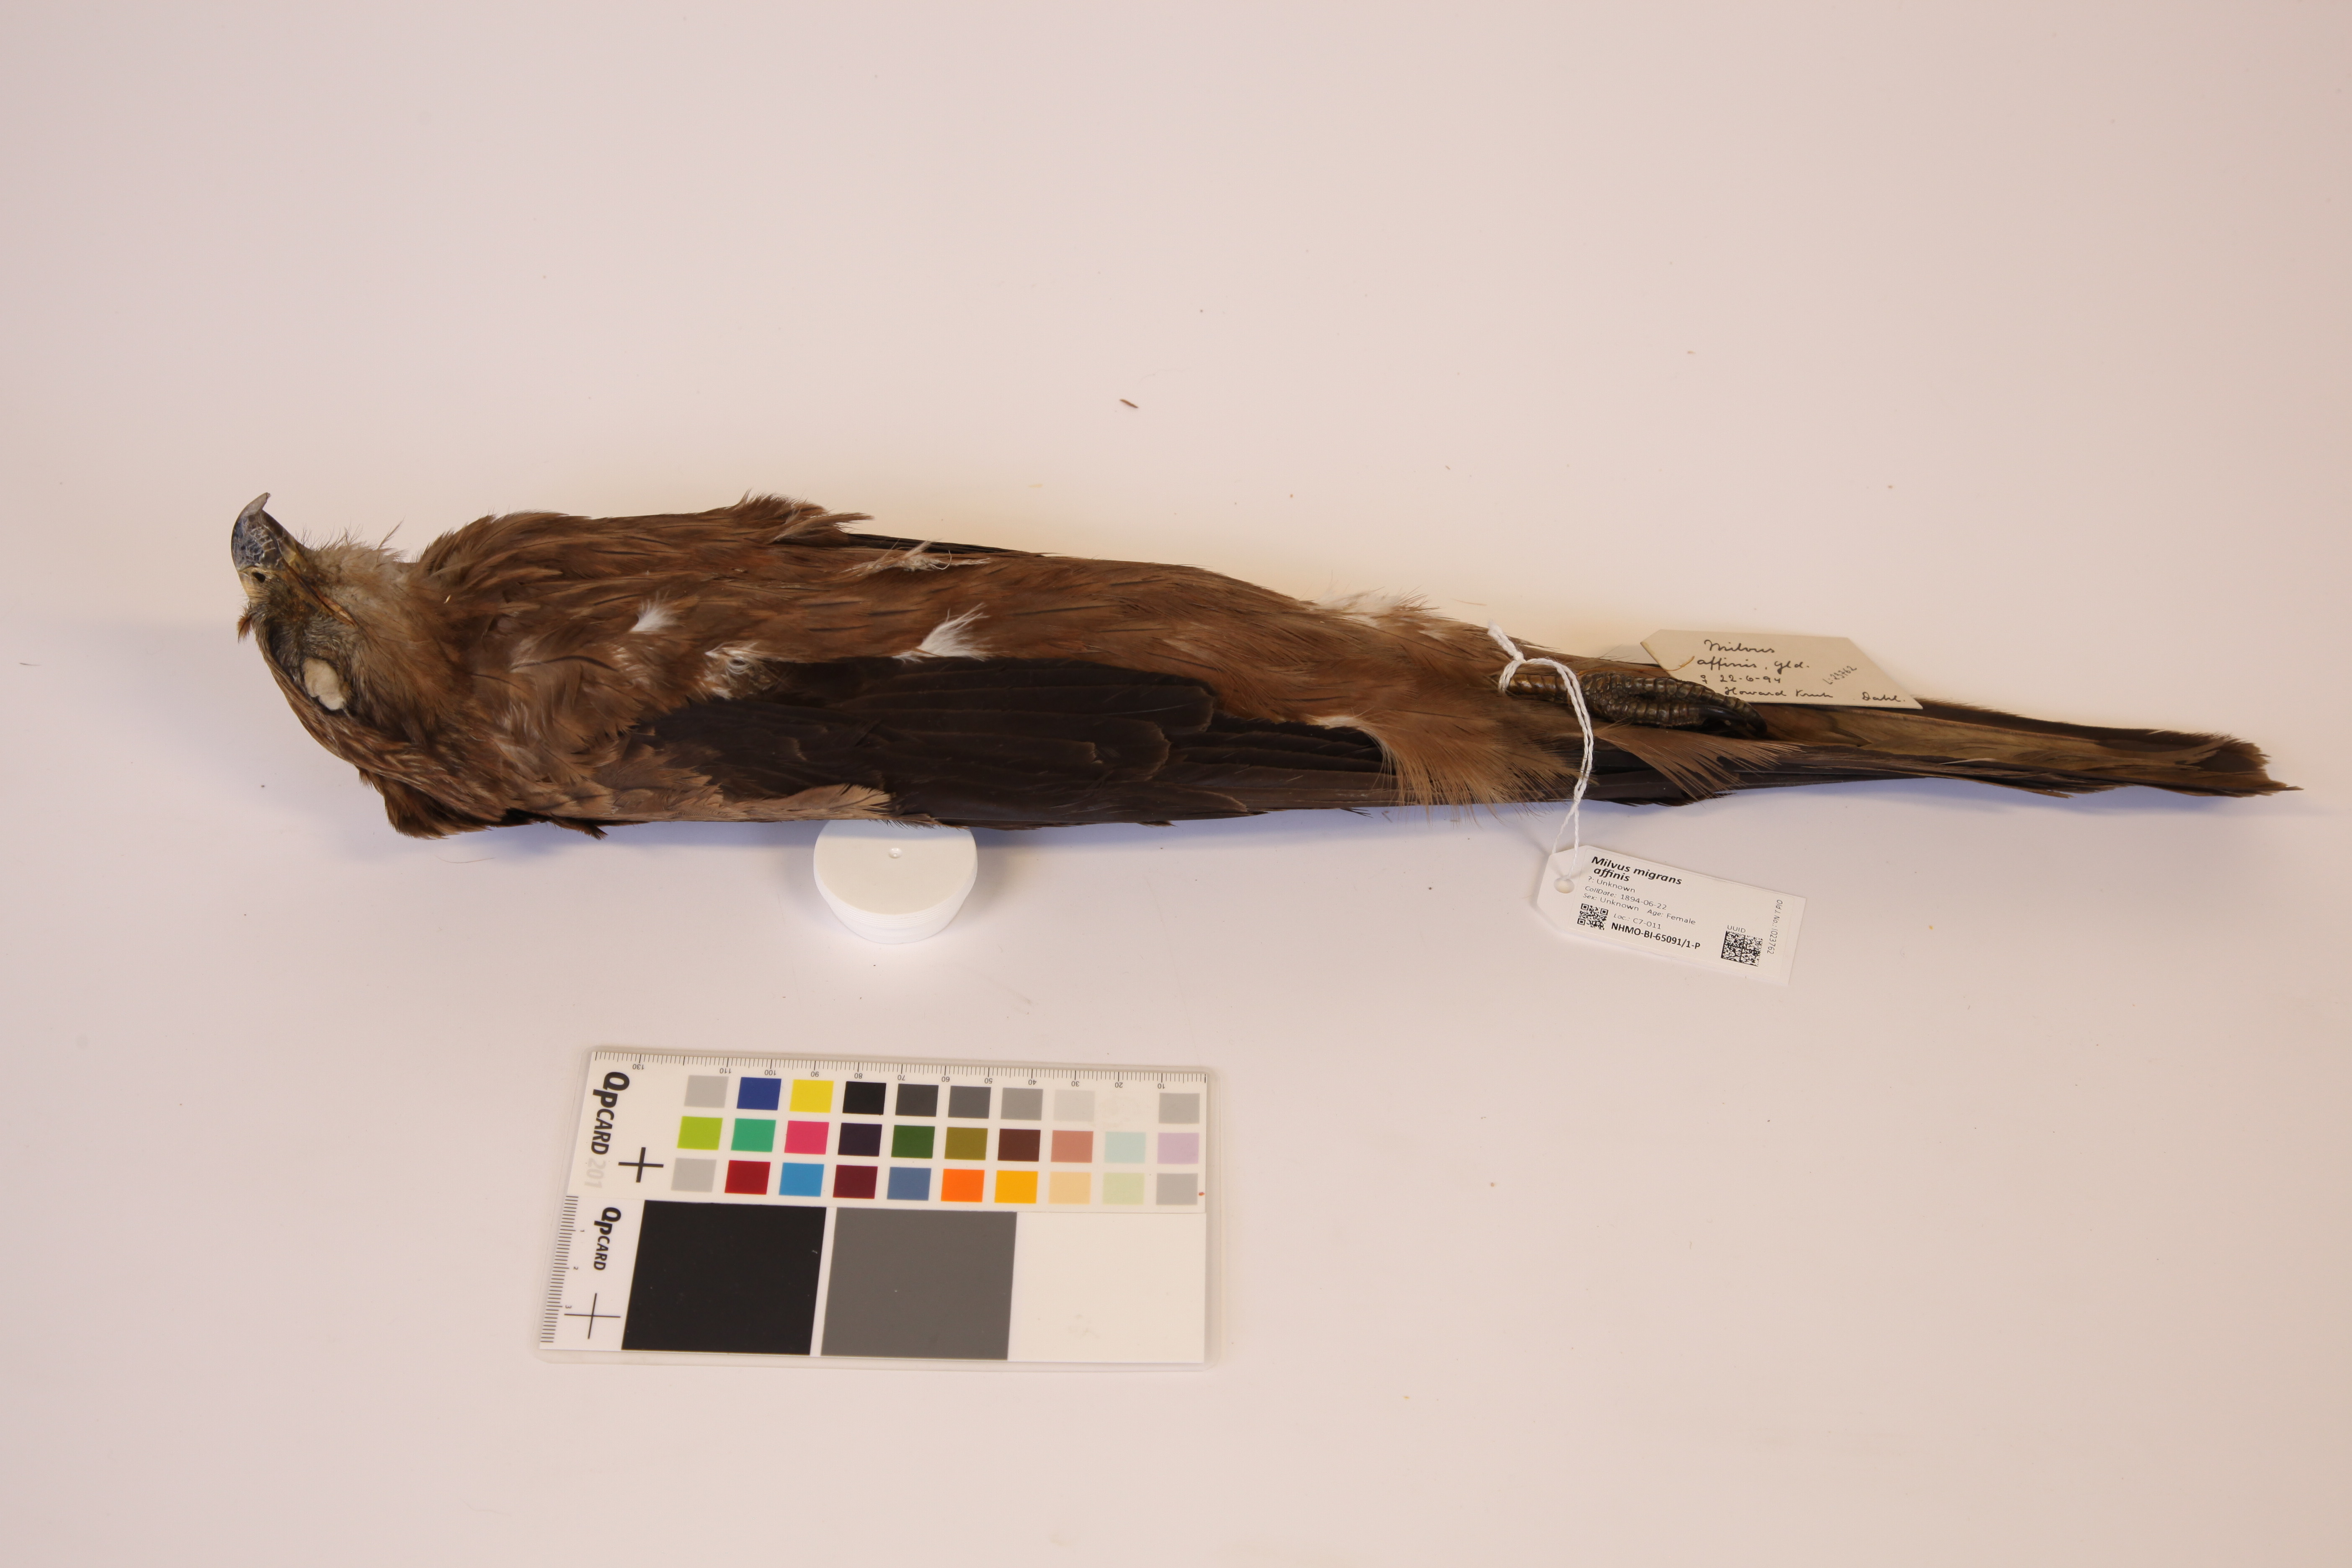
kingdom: Animalia
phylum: Chordata
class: Aves
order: Accipitriformes
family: Accipitridae
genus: Milvus
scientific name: Milvus migrans
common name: Black kite
